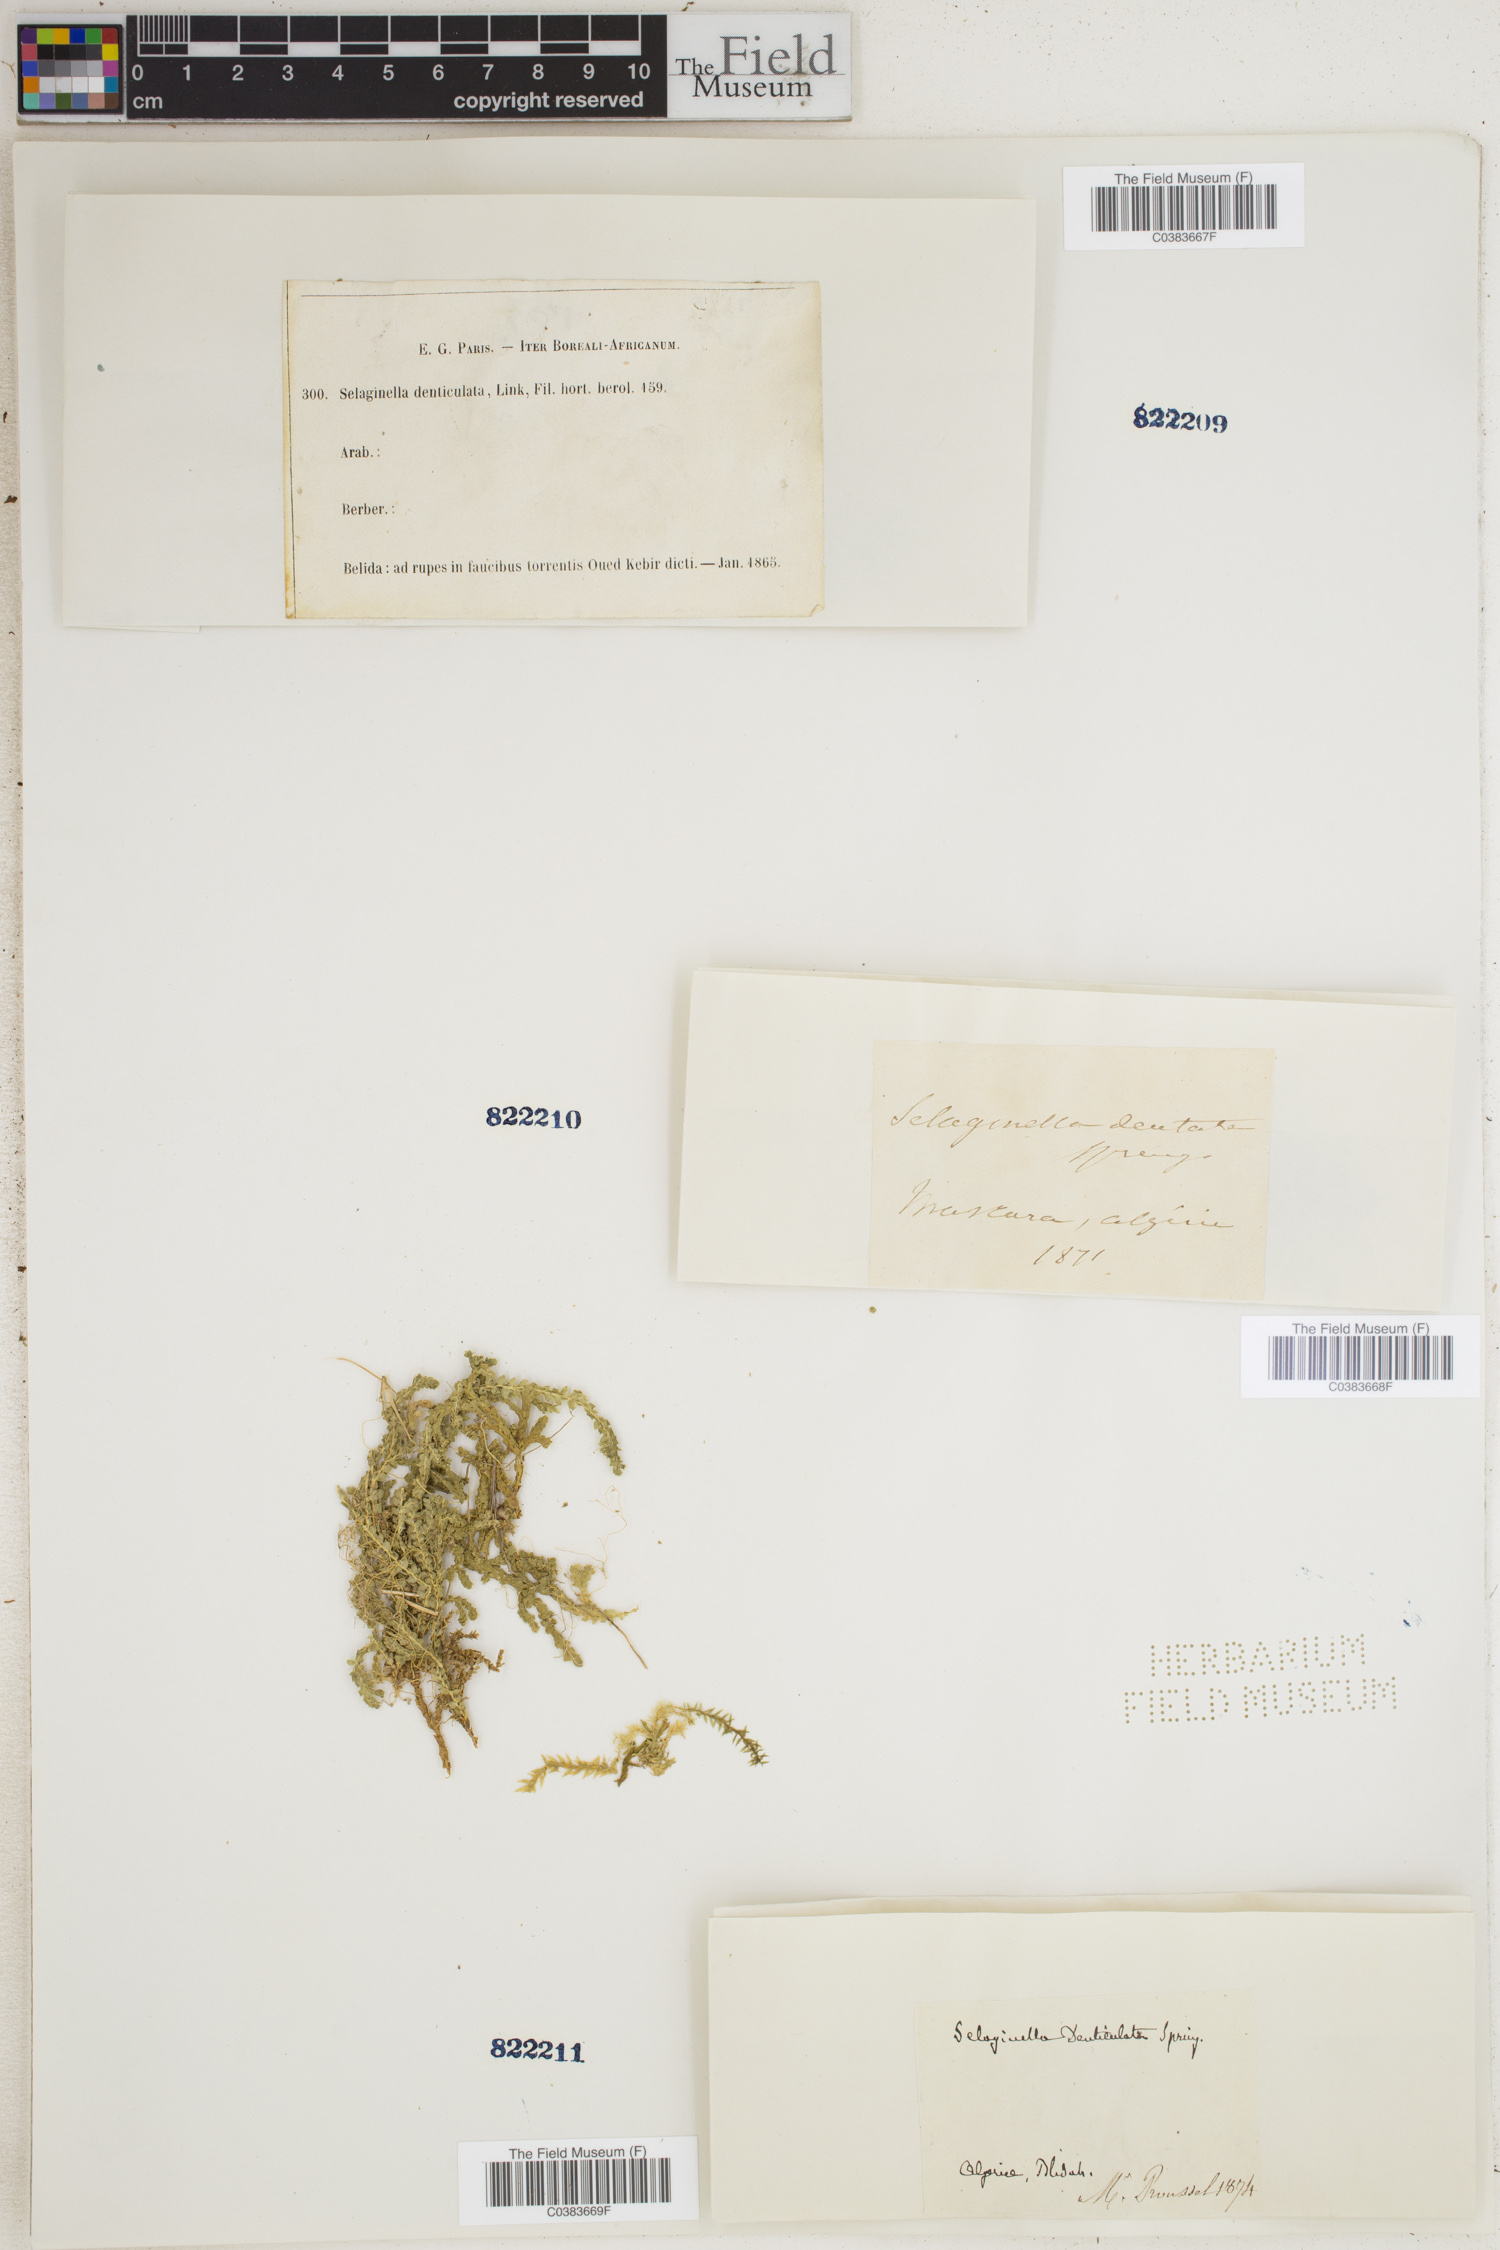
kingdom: Plantae
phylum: Tracheophyta
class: Lycopodiopsida
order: Selaginellales
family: Selaginellaceae
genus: Selaginella
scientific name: Selaginella denticulata
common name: Toothed-leaved clubmoss
